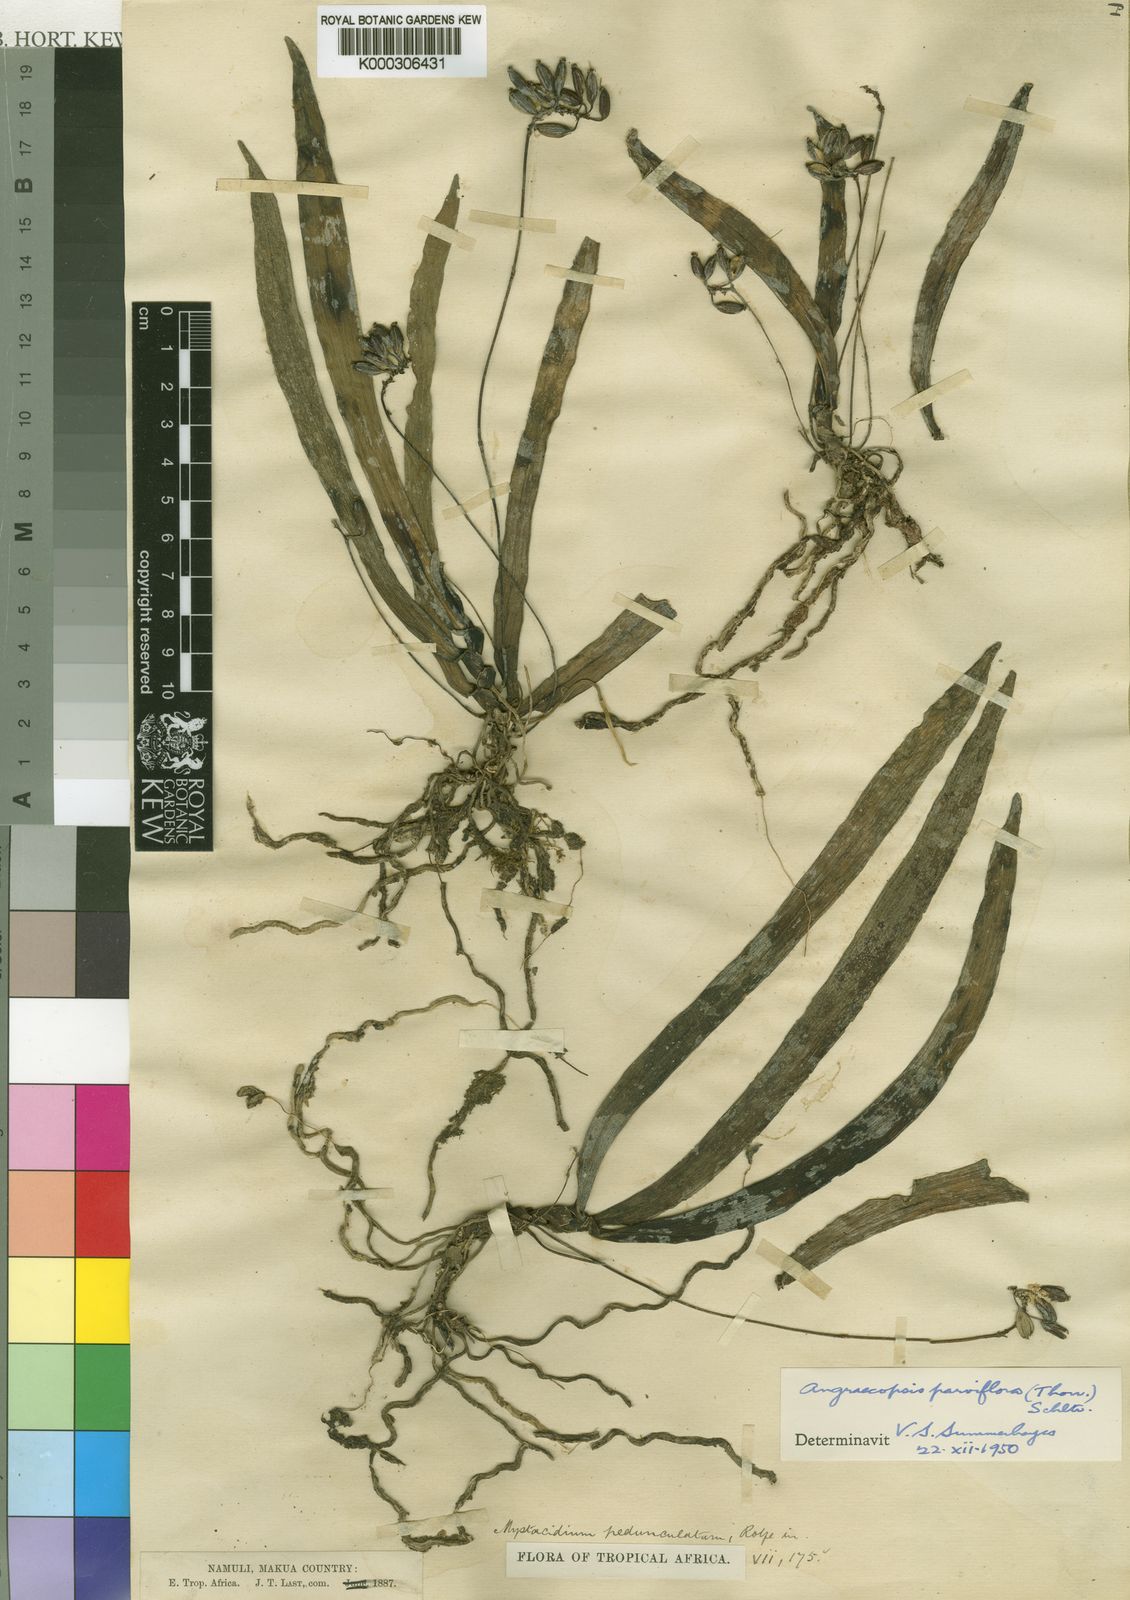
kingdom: Plantae
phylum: Tracheophyta
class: Liliopsida
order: Asparagales
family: Orchidaceae
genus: Angraecopsis
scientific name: Angraecopsis parviflora
